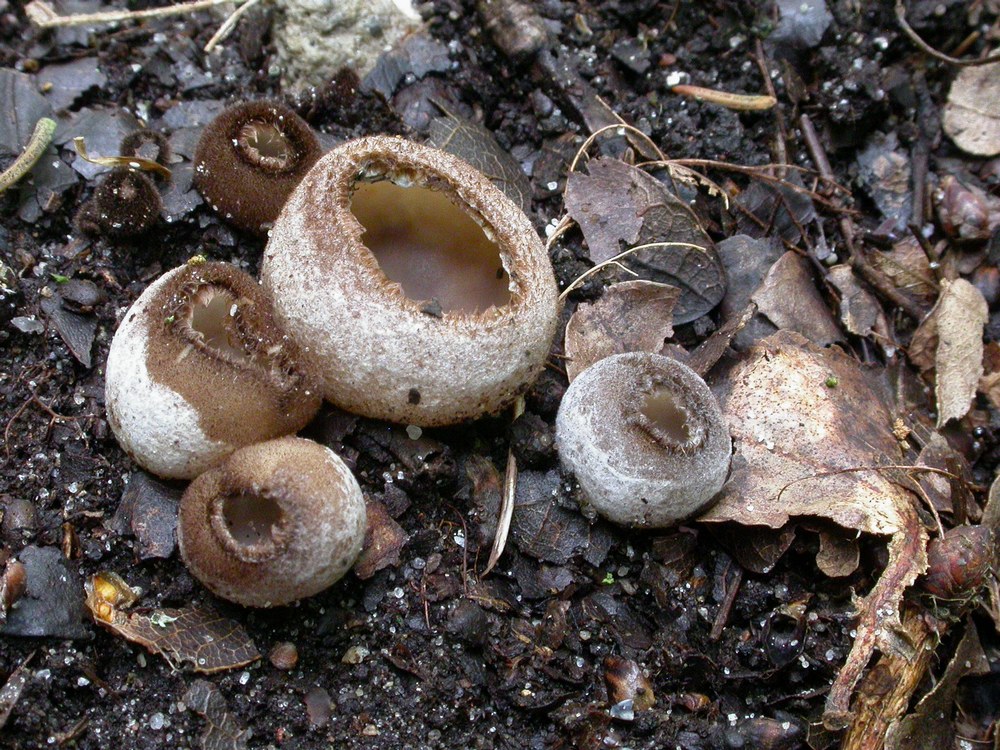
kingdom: Fungi
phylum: Ascomycota
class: Pezizomycetes
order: Pezizales
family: Pyronemataceae
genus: Humaria
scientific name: Humaria hemisphaerica
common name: halvkugleformet børstebæger
